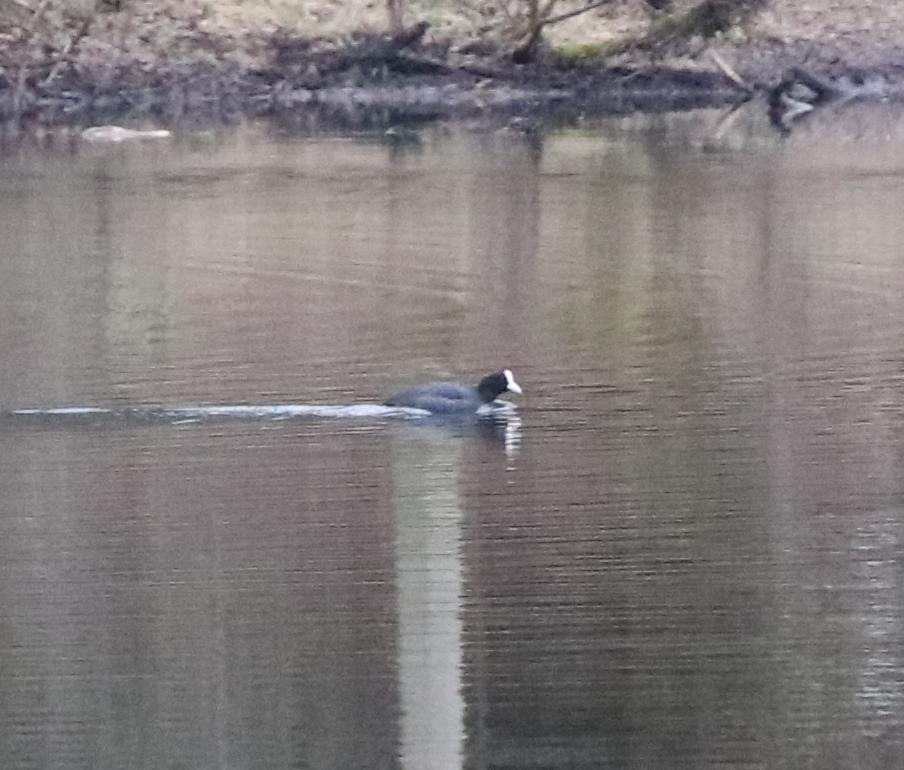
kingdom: Animalia
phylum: Chordata
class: Aves
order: Gruiformes
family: Rallidae
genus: Fulica
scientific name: Fulica atra
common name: Blishøne
